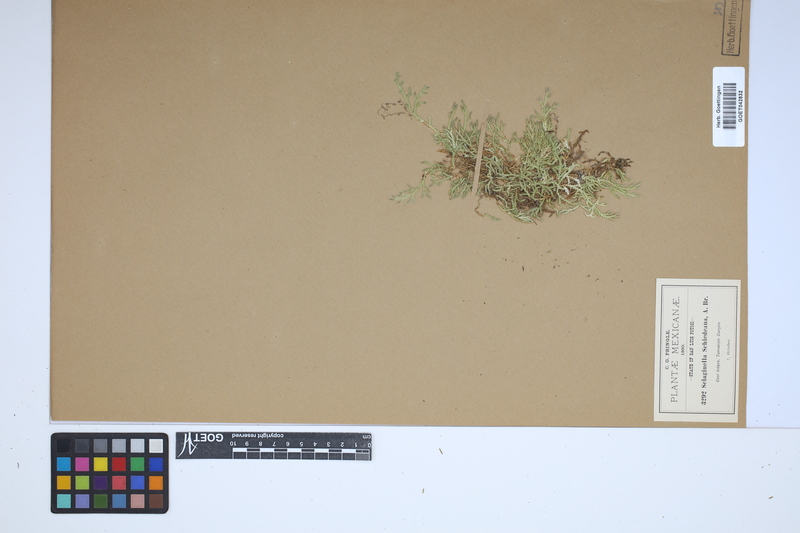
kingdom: Plantae
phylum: Tracheophyta
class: Lycopodiopsida
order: Selaginellales
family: Selaginellaceae
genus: Selaginella
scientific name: Selaginella schiedeana
